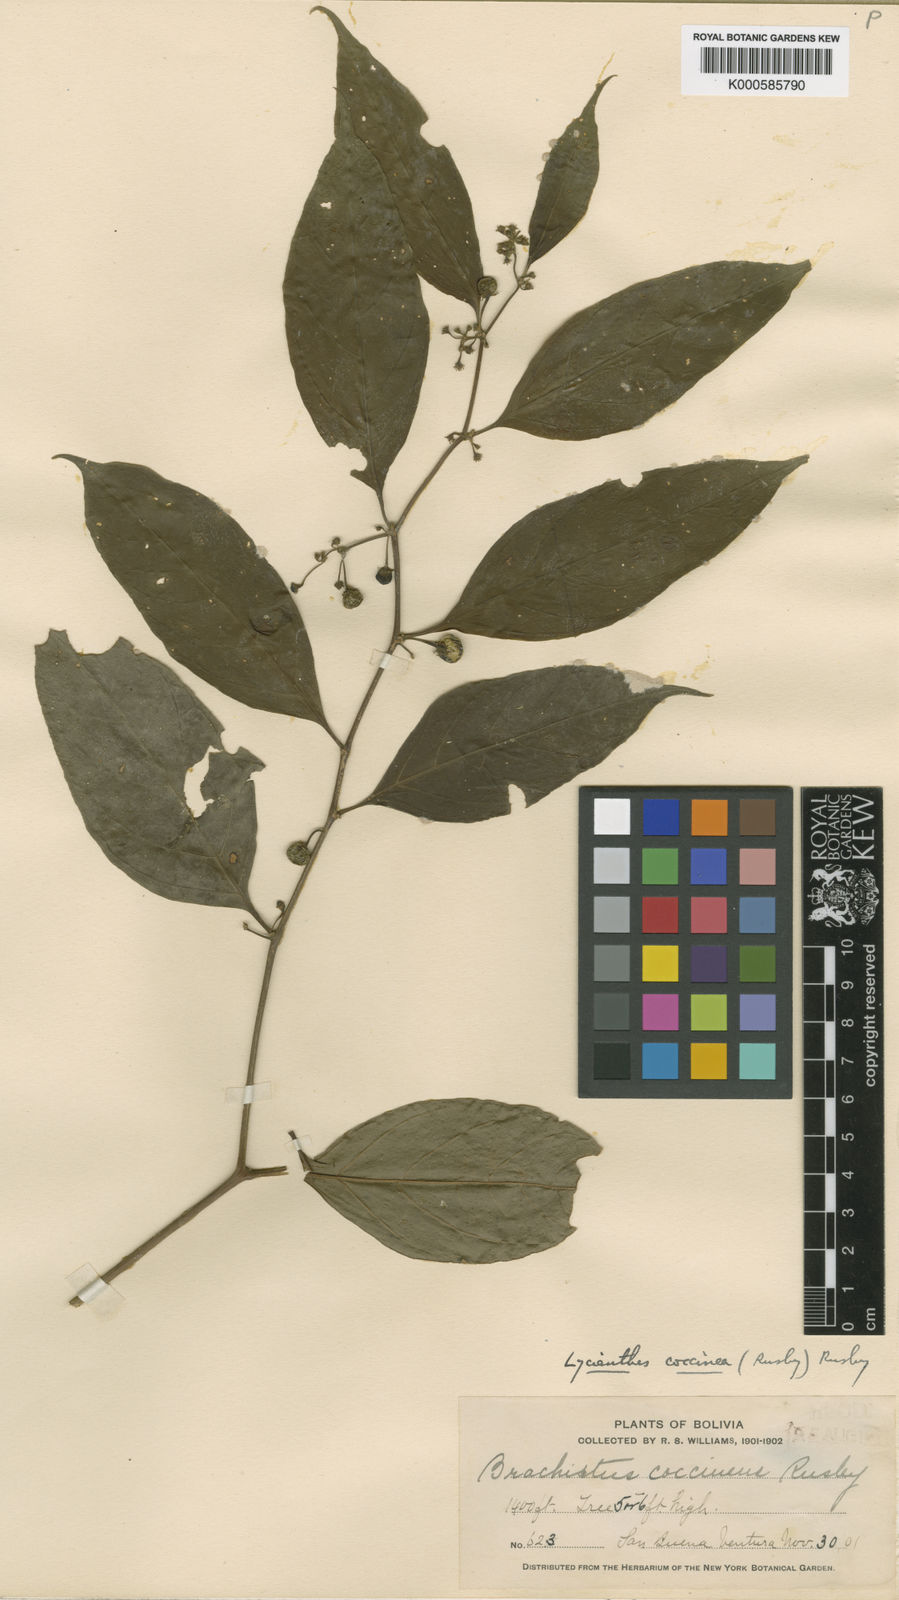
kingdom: Plantae
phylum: Tracheophyta
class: Magnoliopsida
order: Solanales
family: Solanaceae
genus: Capsicum
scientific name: Capsicum coccineum
